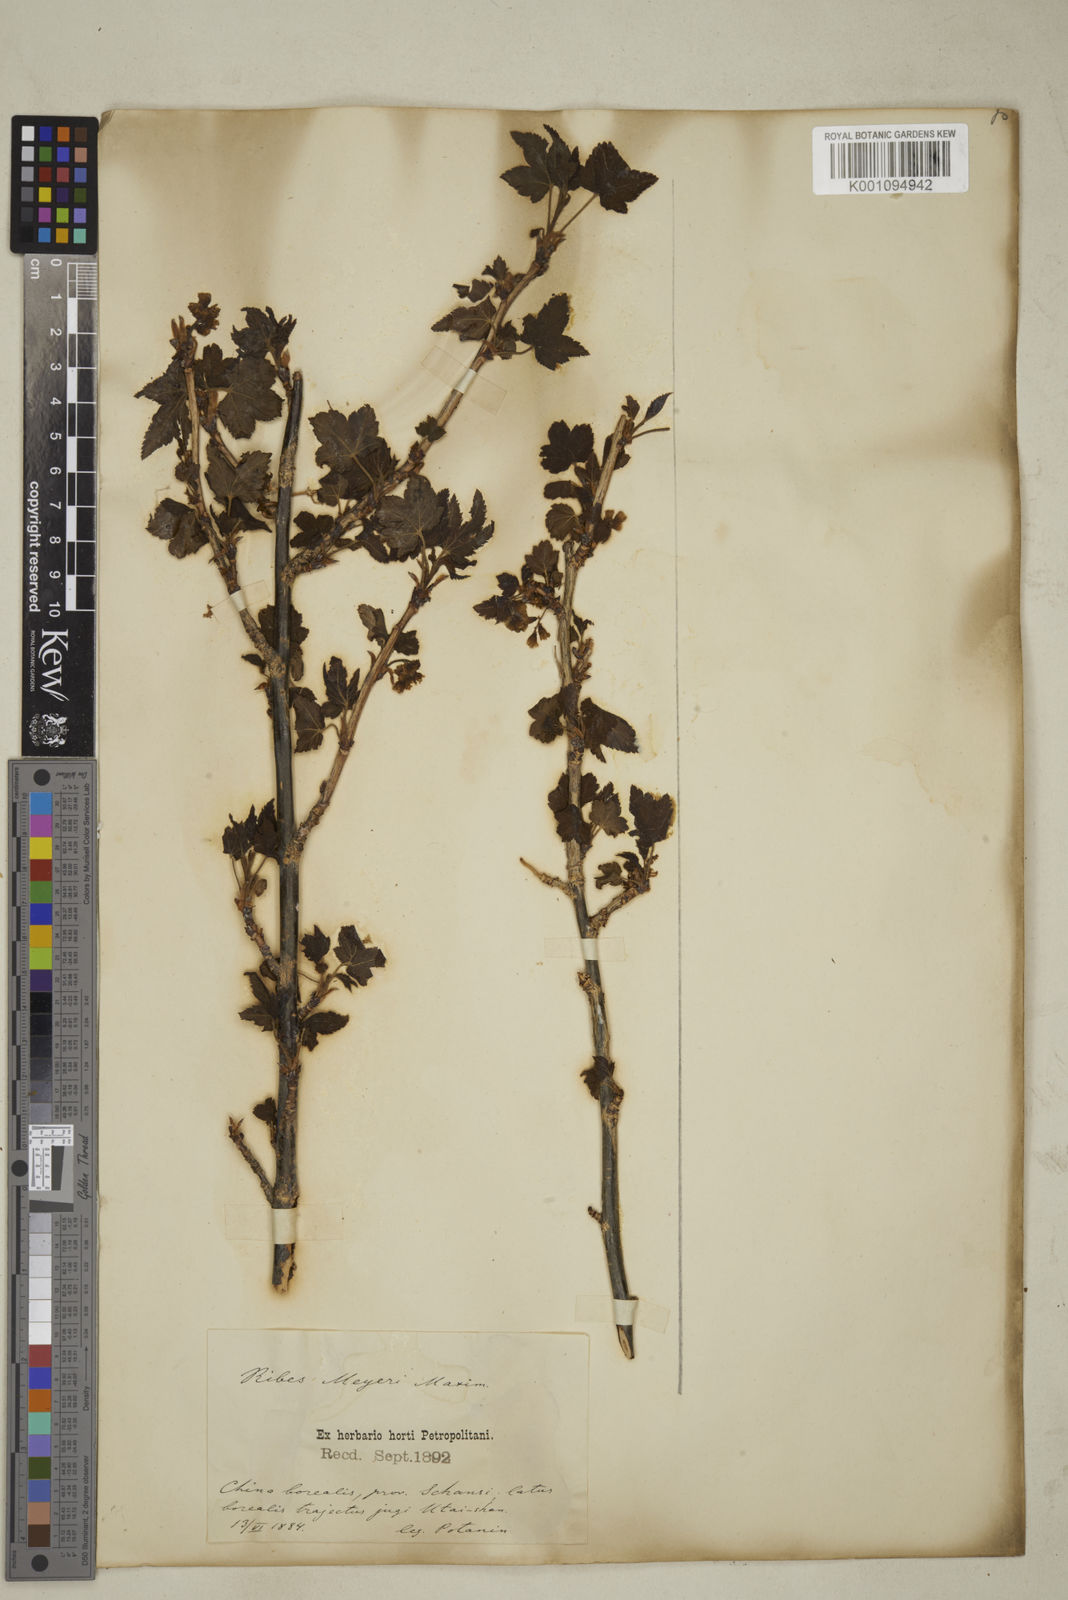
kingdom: Plantae
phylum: Tracheophyta
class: Magnoliopsida
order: Saxifragales
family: Grossulariaceae
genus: Ribes
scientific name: Ribes meyeri
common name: Meyer's currant
